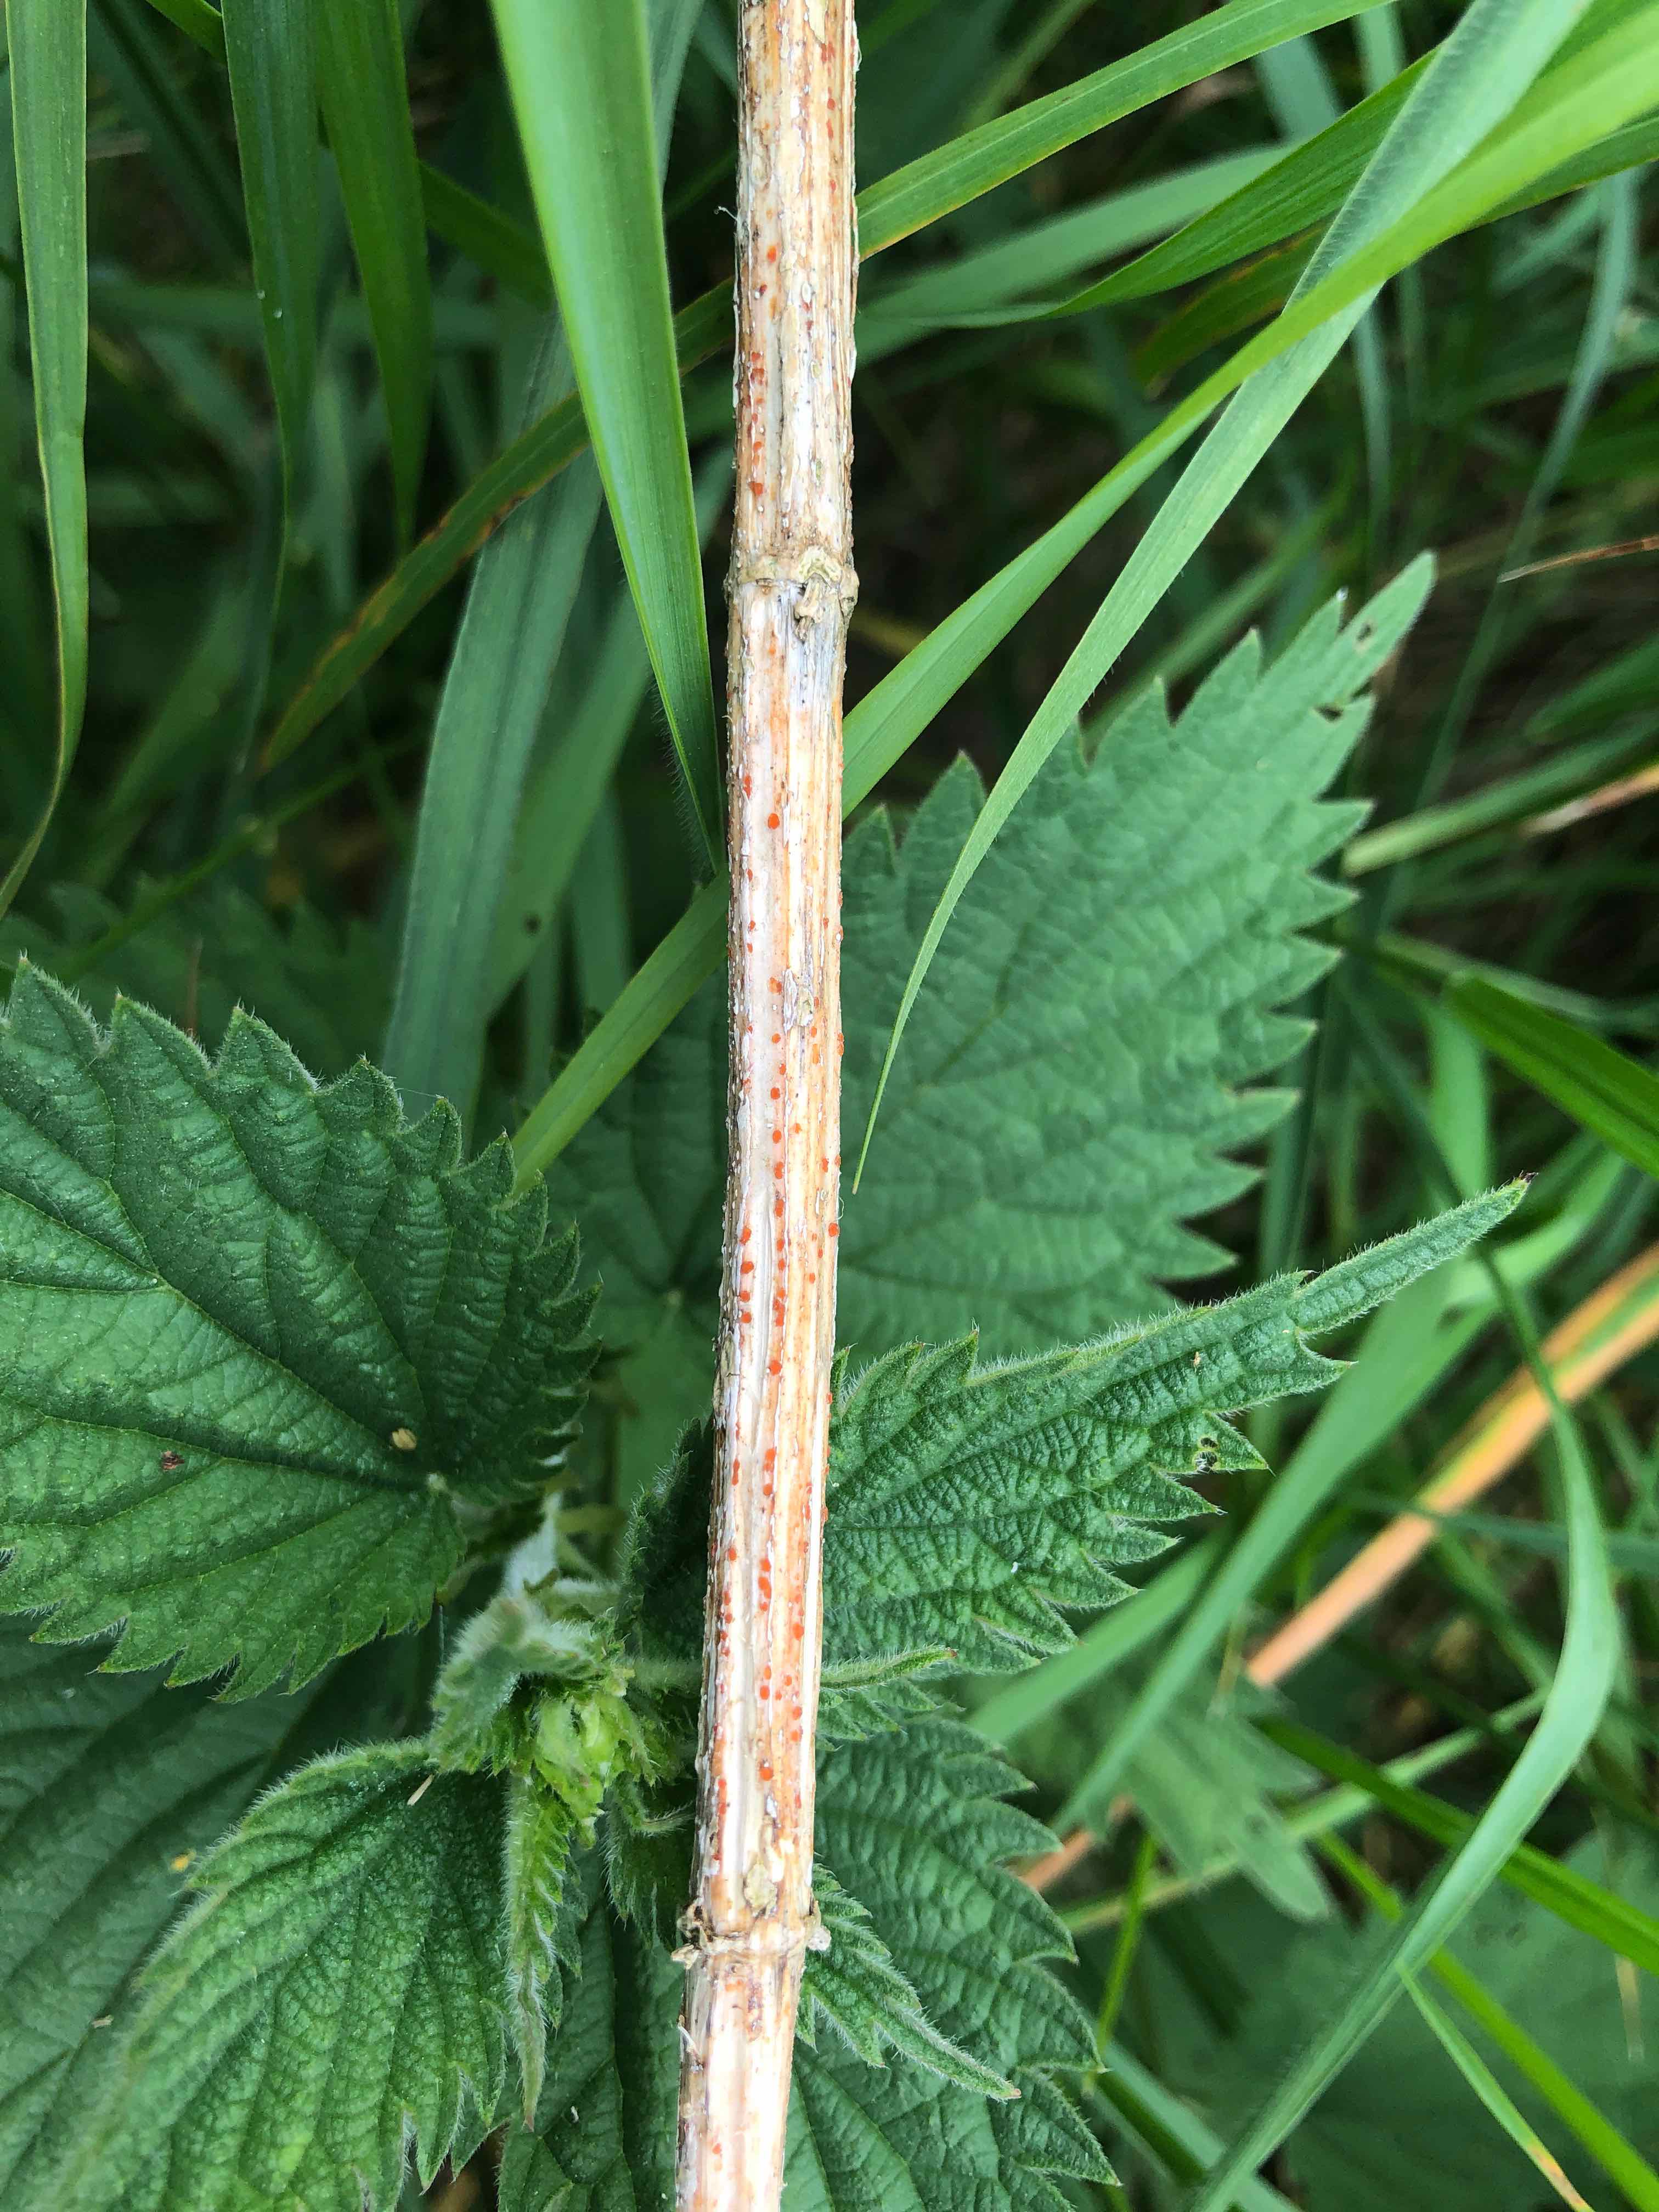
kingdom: Fungi
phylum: Ascomycota
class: Leotiomycetes
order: Helotiales
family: Calloriaceae
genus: Calloria
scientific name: Calloria urticae
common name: nælde-orangeskive
